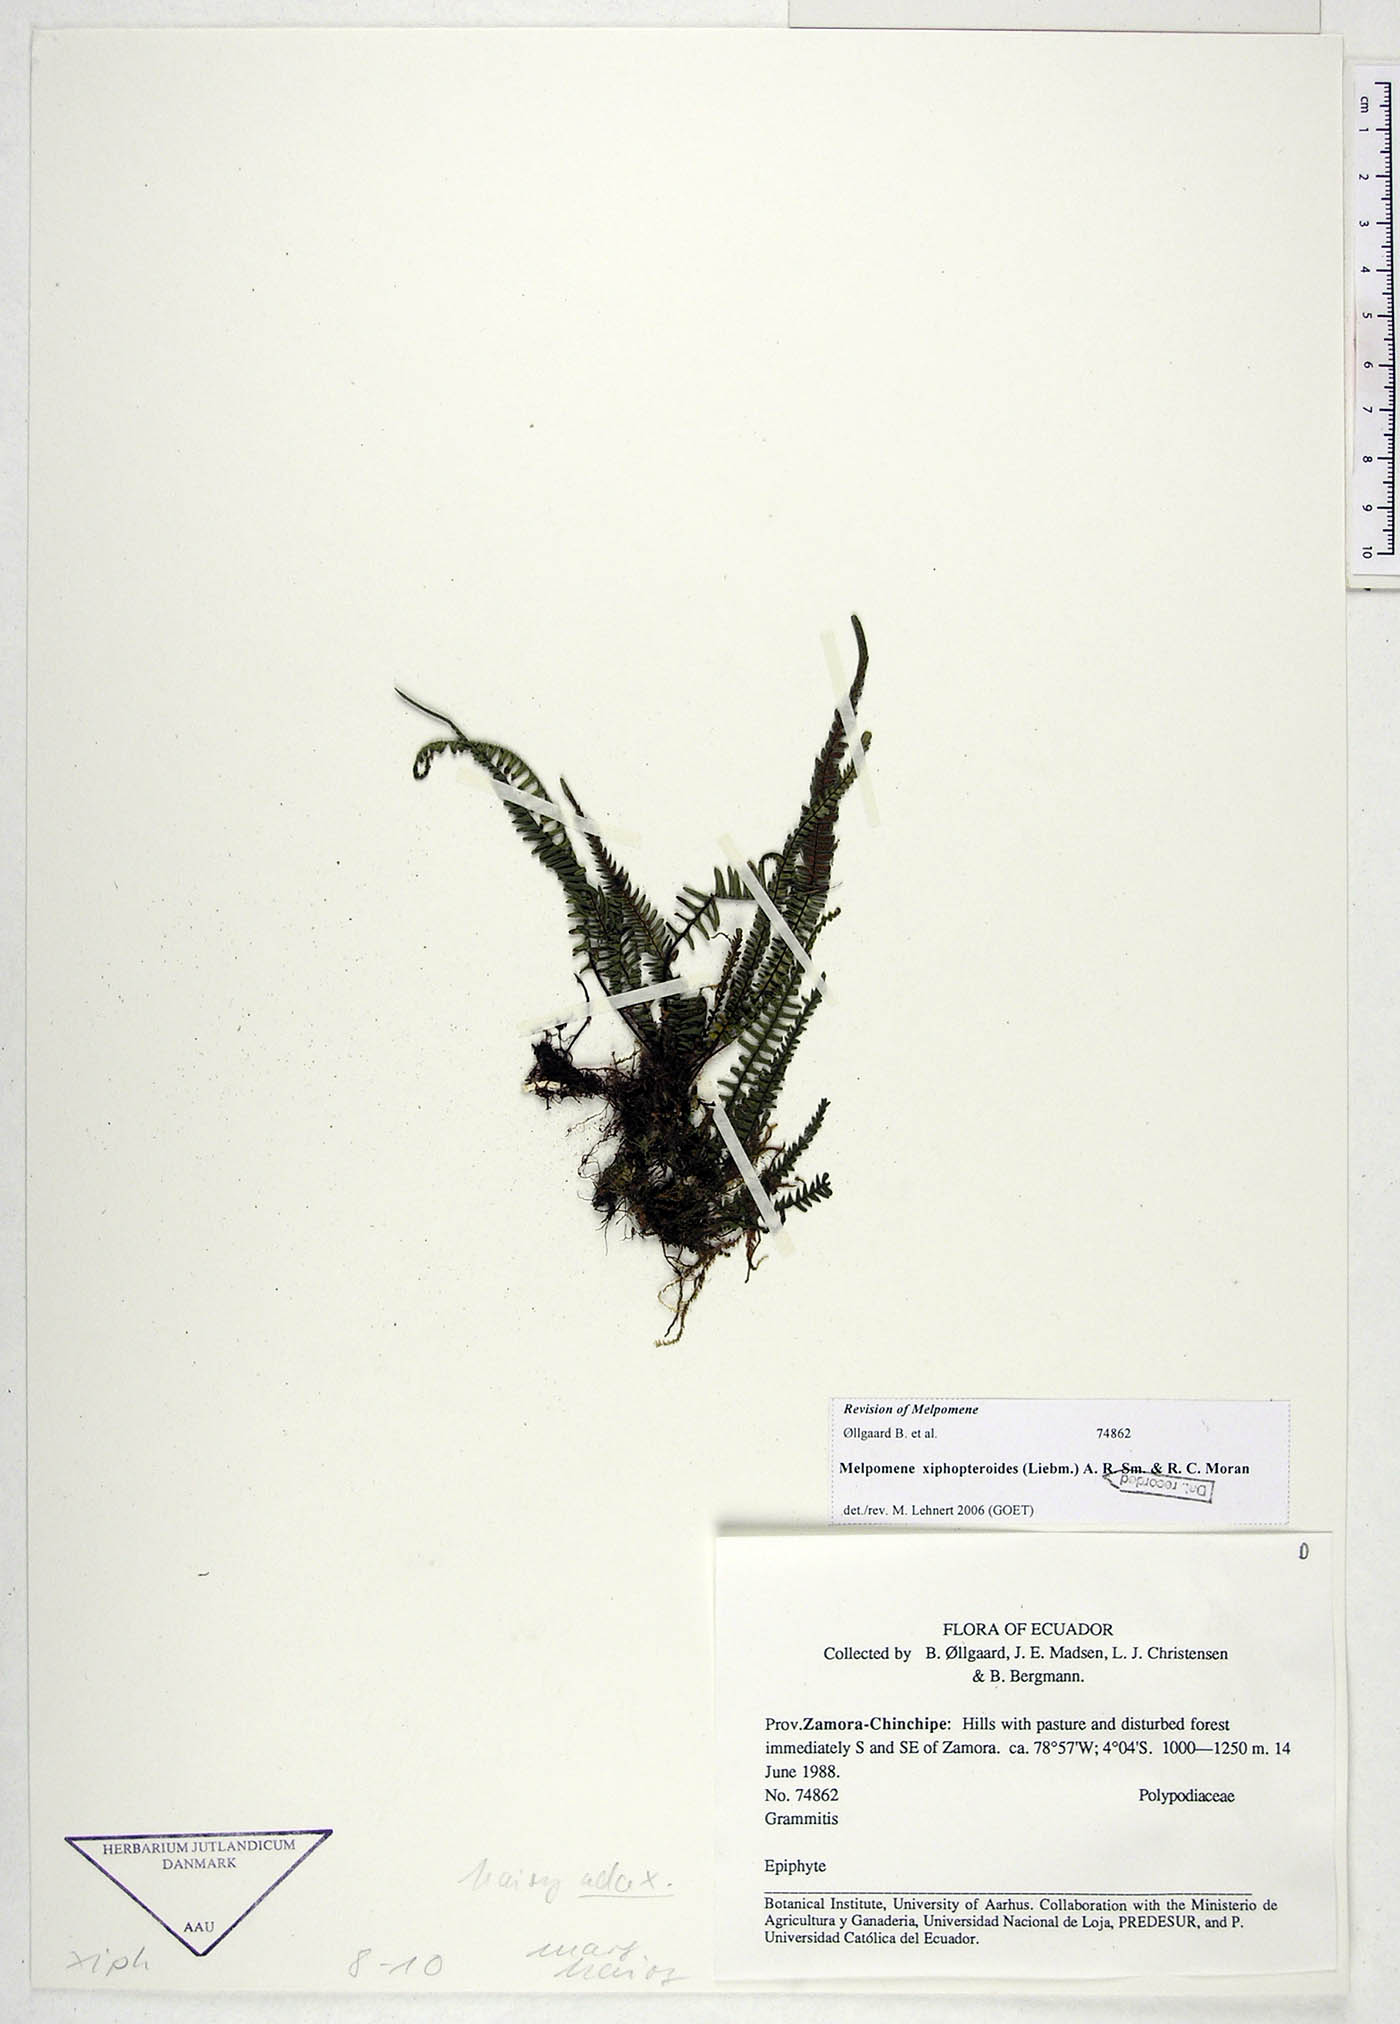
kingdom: Plantae
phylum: Tracheophyta
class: Polypodiopsida
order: Polypodiales
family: Polypodiaceae
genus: Melpomene
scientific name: Melpomene xiphopteroides
